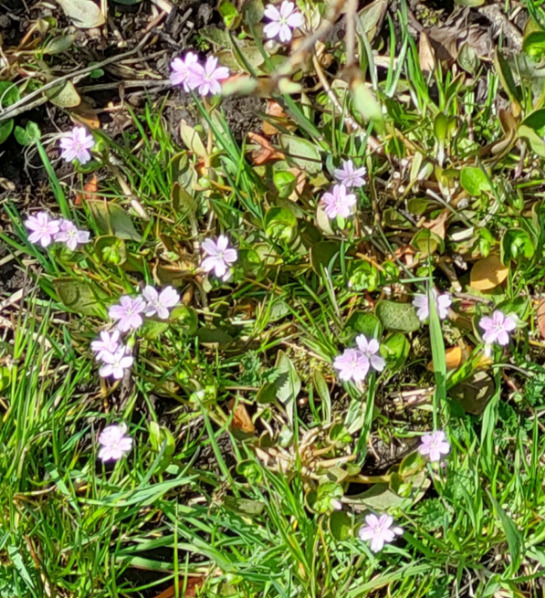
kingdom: Plantae
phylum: Tracheophyta
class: Magnoliopsida
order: Caryophyllales
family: Montiaceae
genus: Claytonia
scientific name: Claytonia sibirica
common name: Sibirisk vinterportulak
